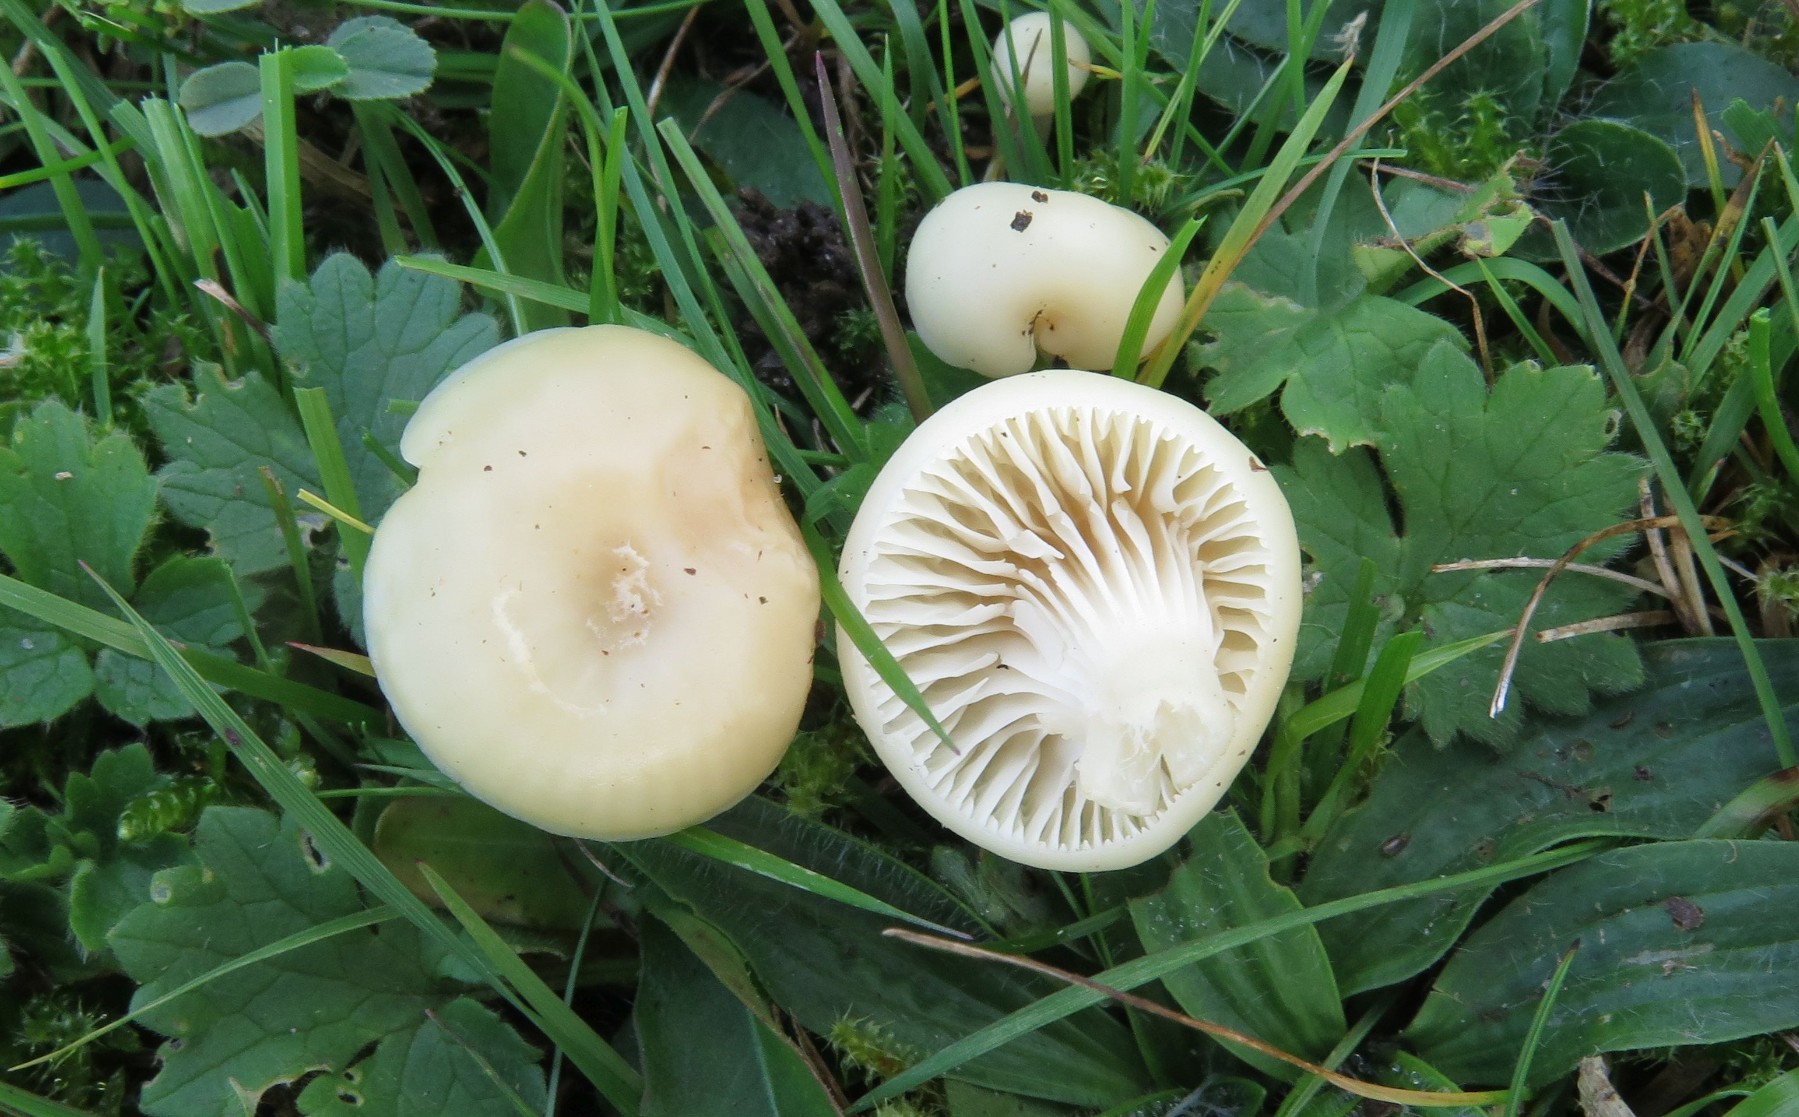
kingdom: Fungi
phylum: Basidiomycota
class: Agaricomycetes
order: Agaricales
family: Hygrophoraceae
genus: Cuphophyllus
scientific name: Cuphophyllus
